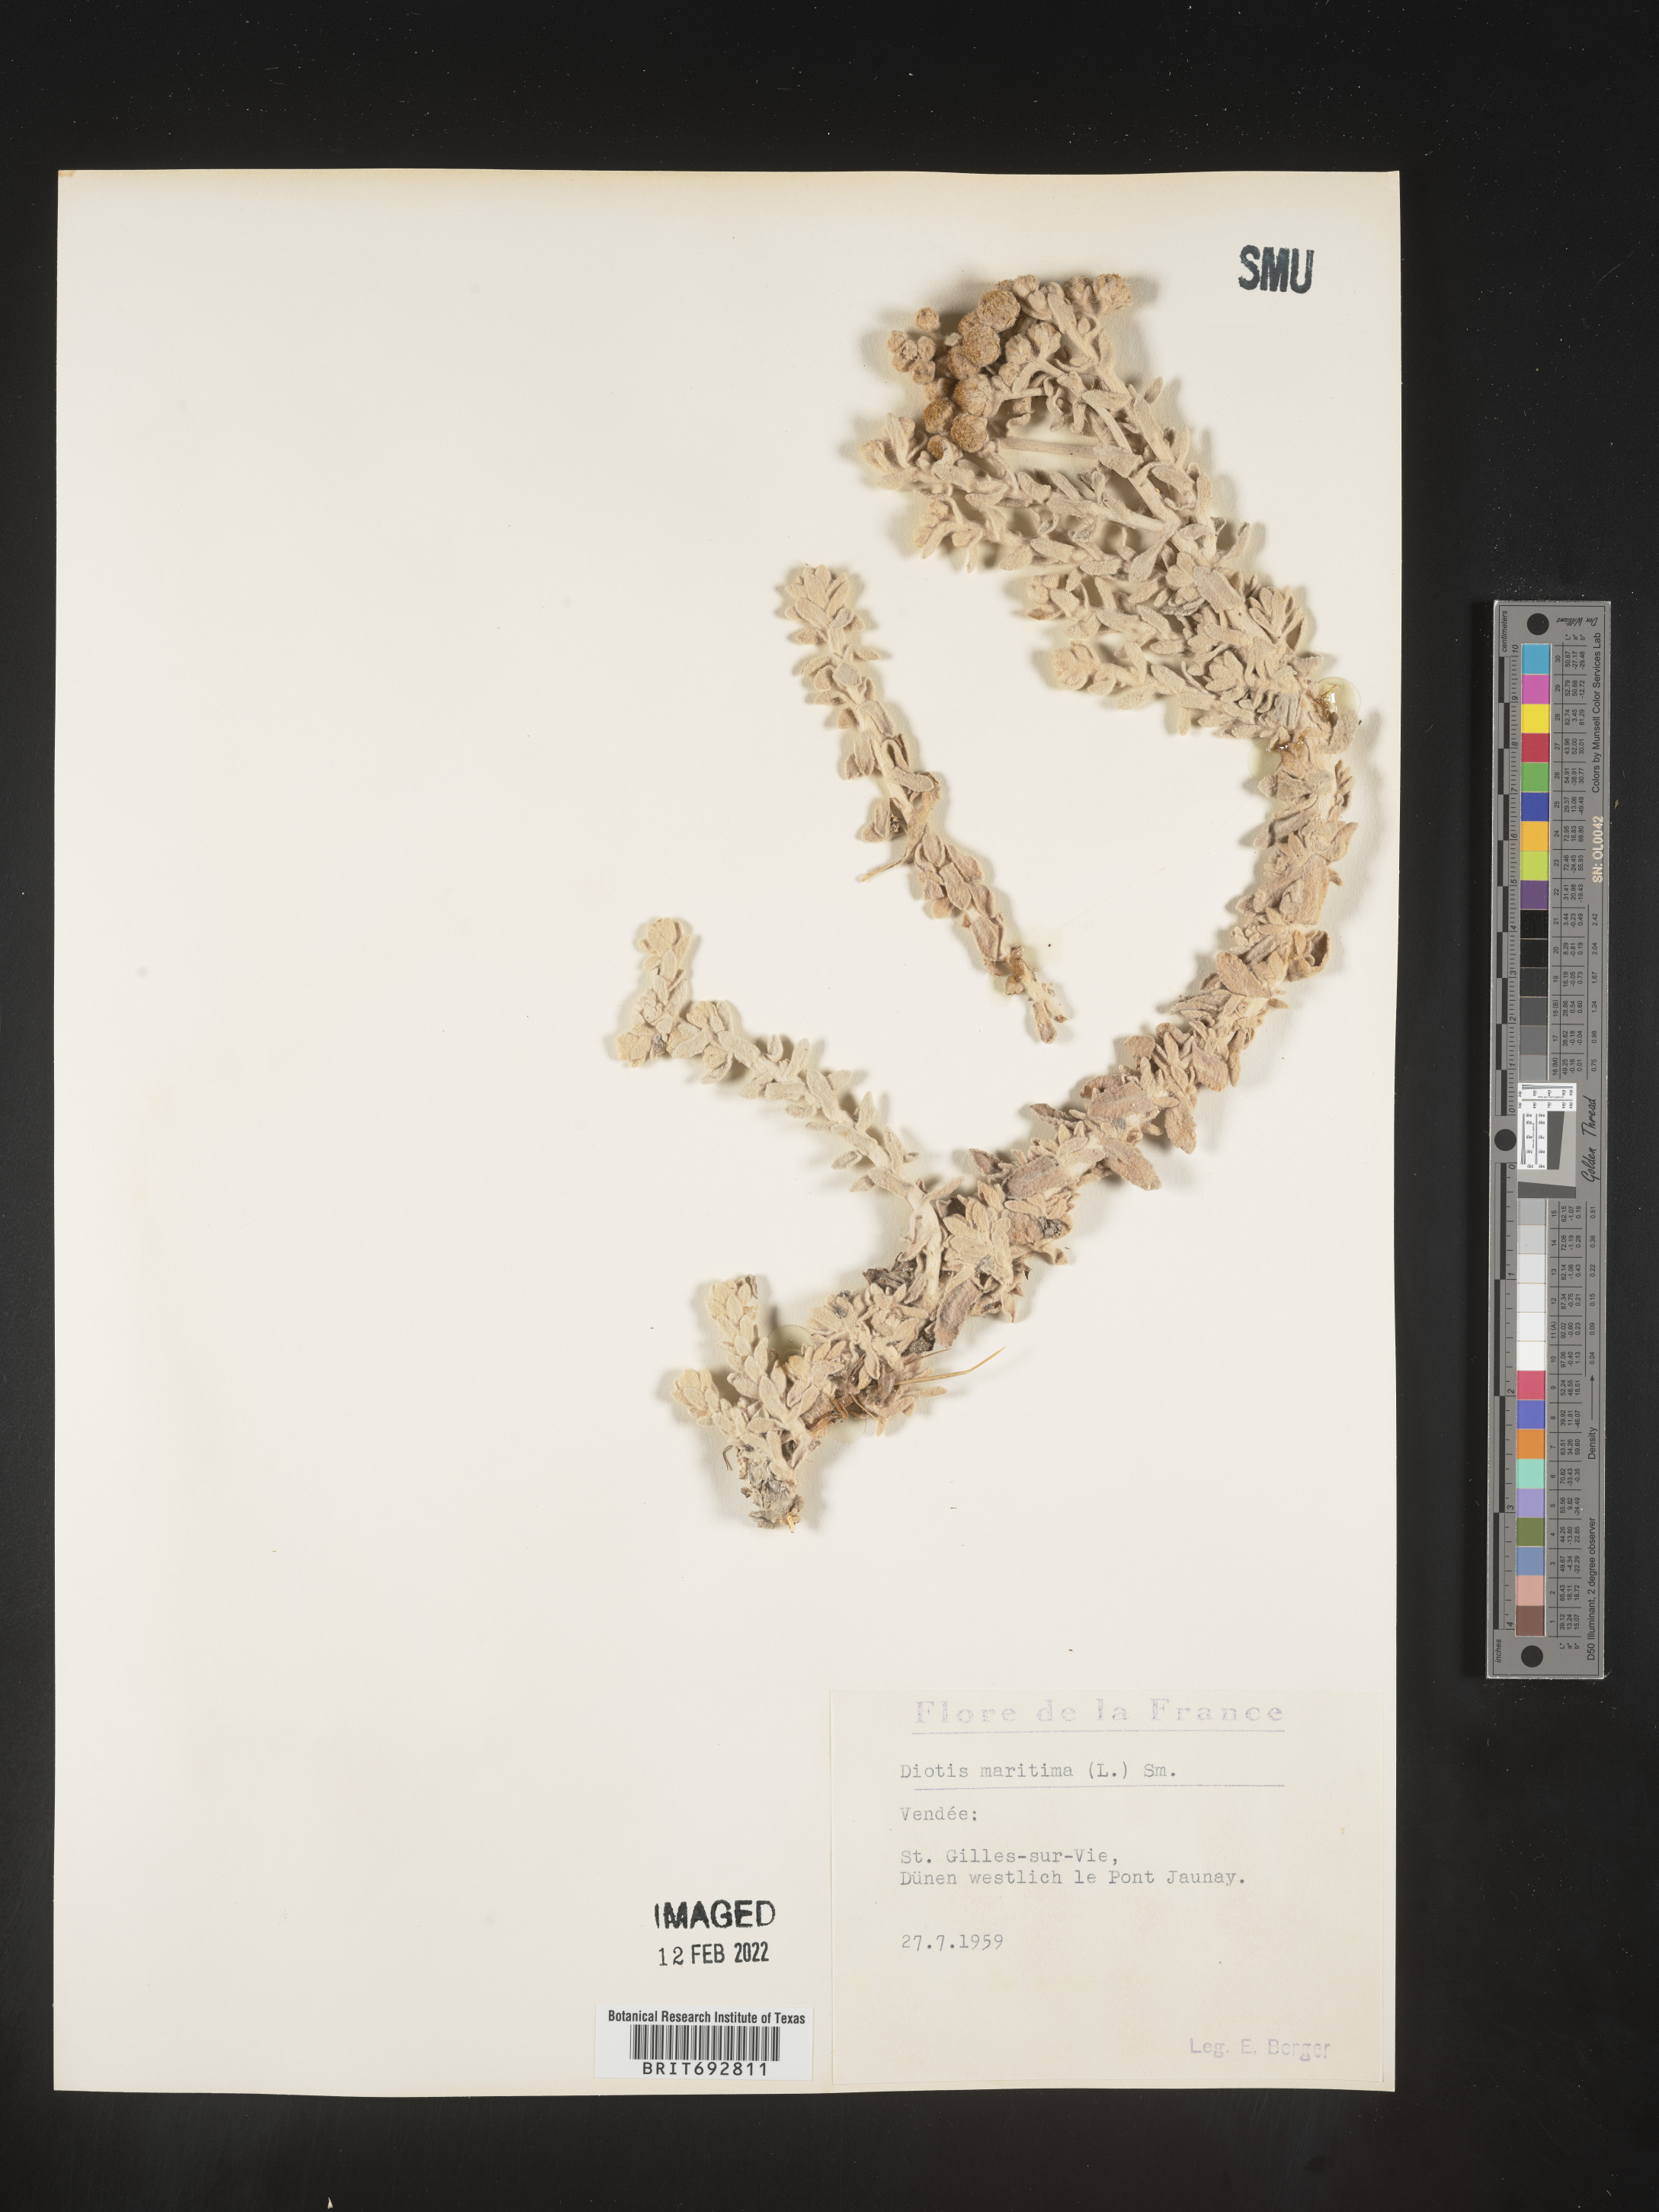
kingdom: Plantae
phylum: Tracheophyta
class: Magnoliopsida
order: Asterales
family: Asteraceae
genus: Achillea
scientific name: Achillea
